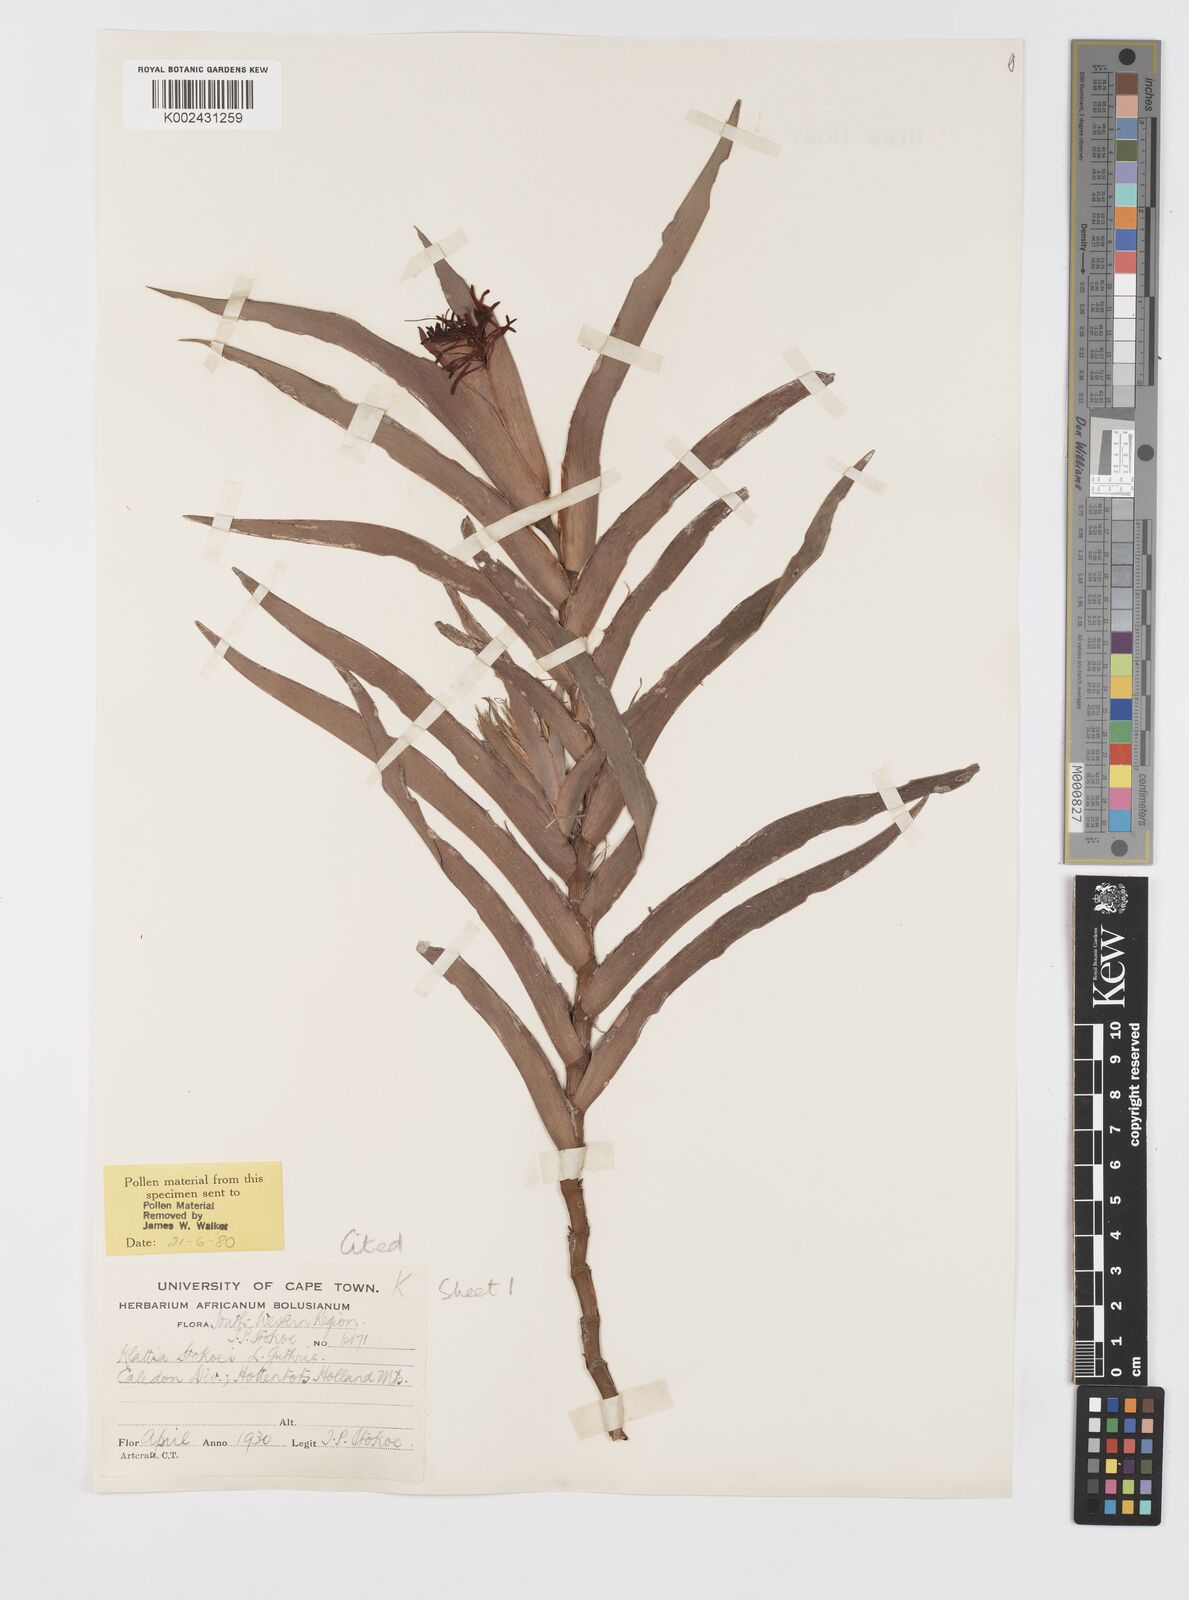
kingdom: Plantae
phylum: Tracheophyta
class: Liliopsida
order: Asparagales
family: Iridaceae
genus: Klattia
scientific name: Klattia stokoei
